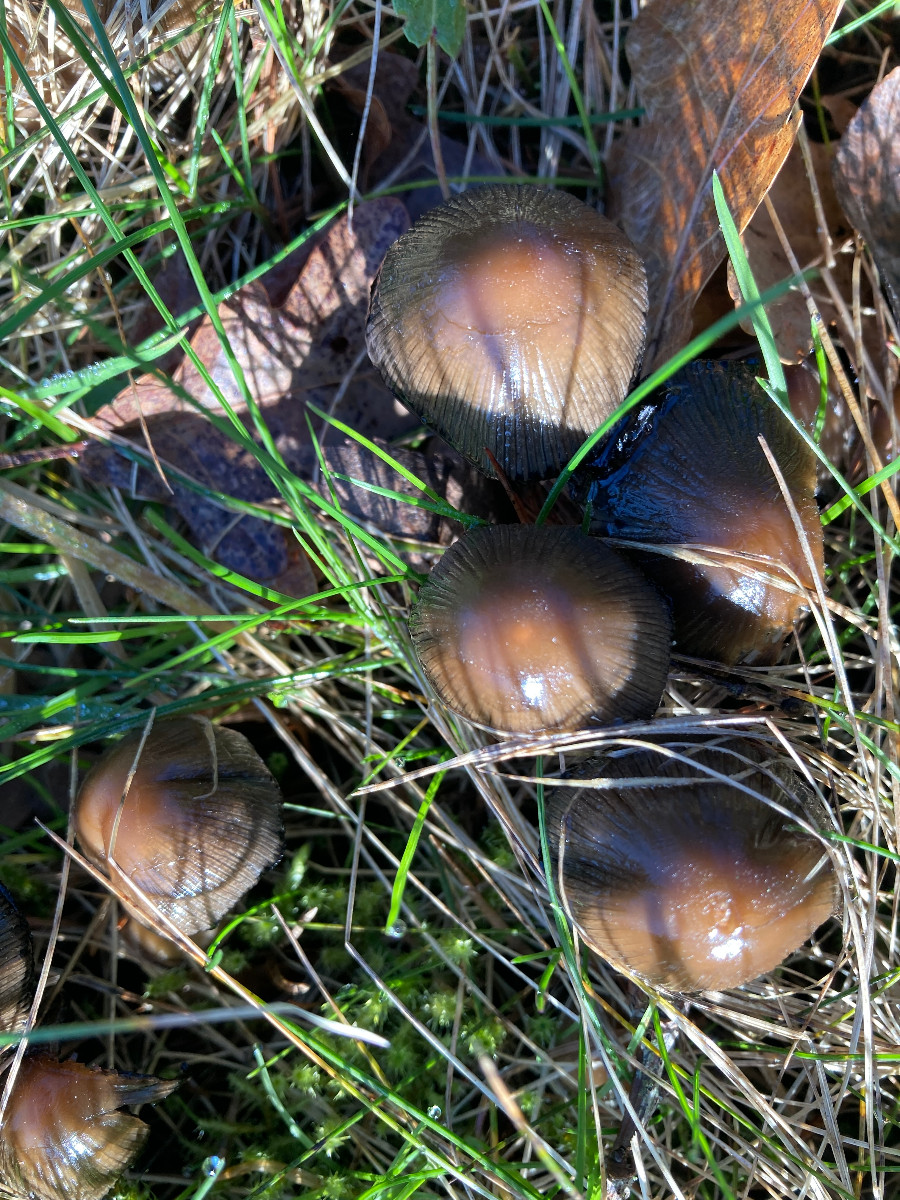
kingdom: Fungi
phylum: Basidiomycota
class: Agaricomycetes
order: Agaricales
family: Psathyrellaceae
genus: Coprinellus
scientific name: Coprinellus micaceus
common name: glimmer-blækhat
